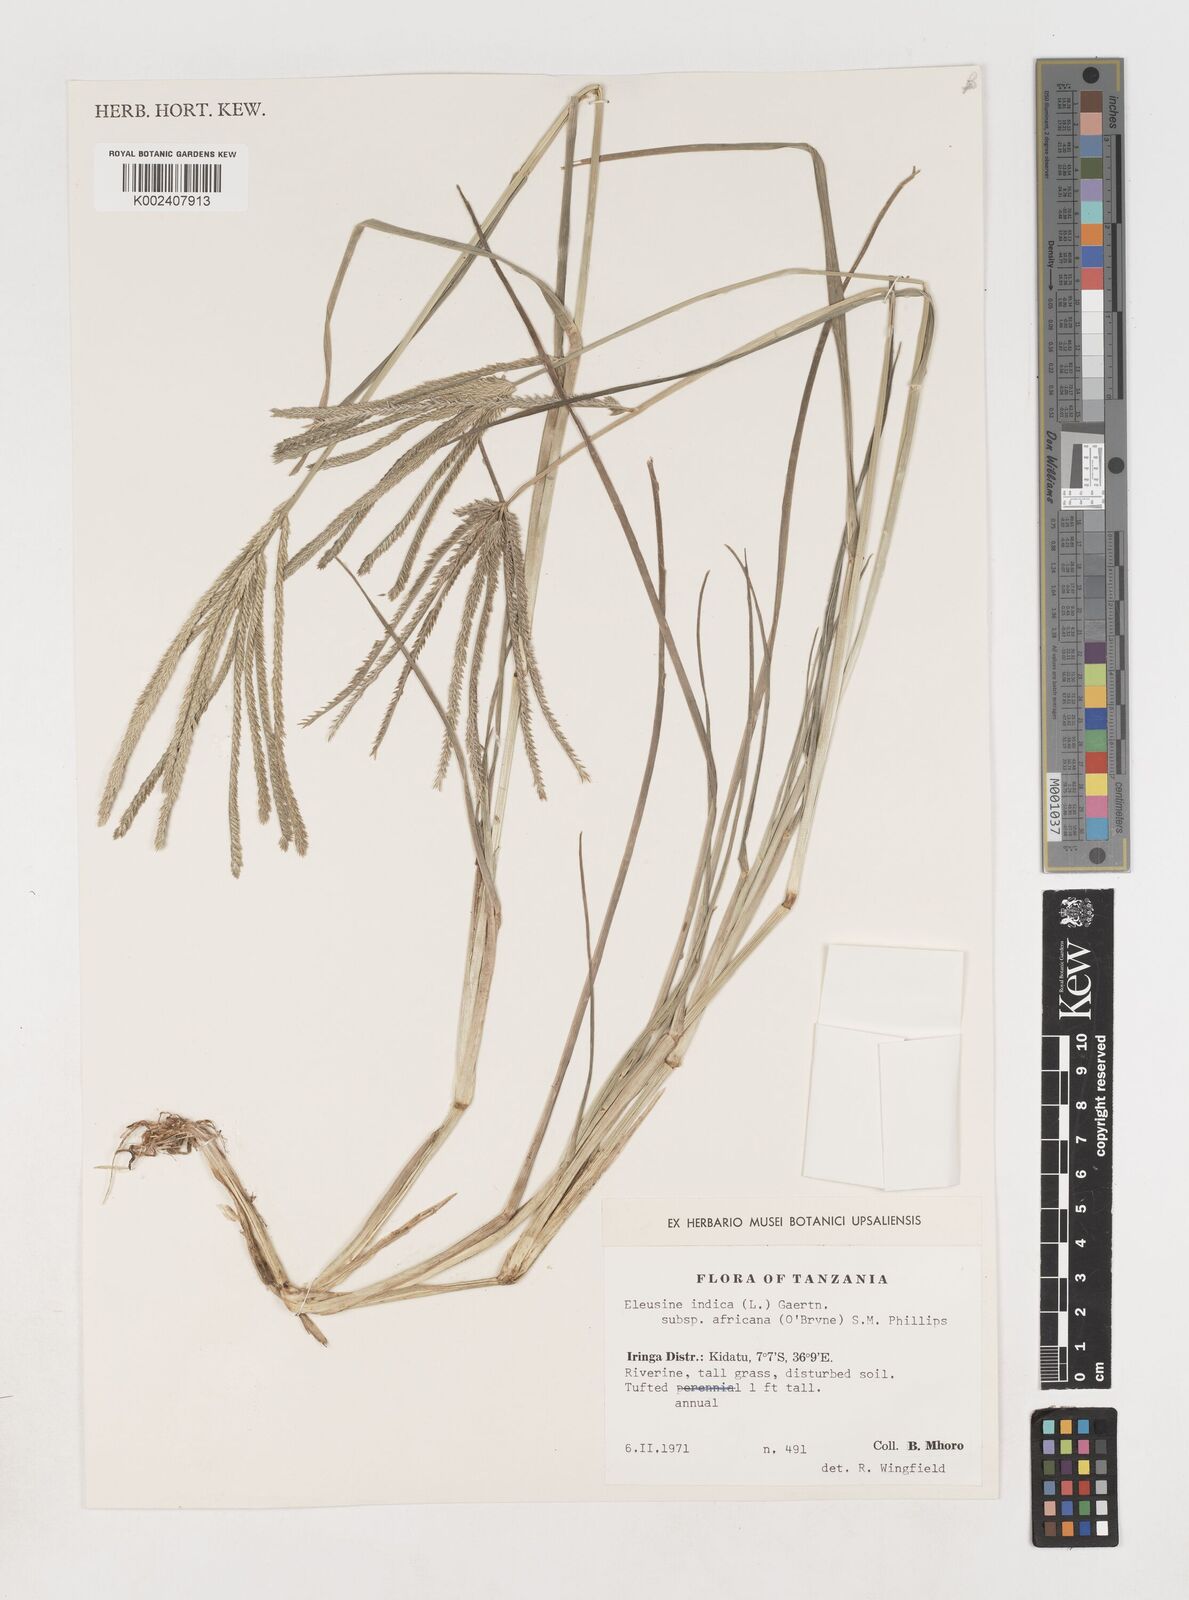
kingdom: Plantae
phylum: Tracheophyta
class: Liliopsida
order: Poales
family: Poaceae
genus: Eleusine
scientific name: Eleusine africana
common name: Wild african finger millet
